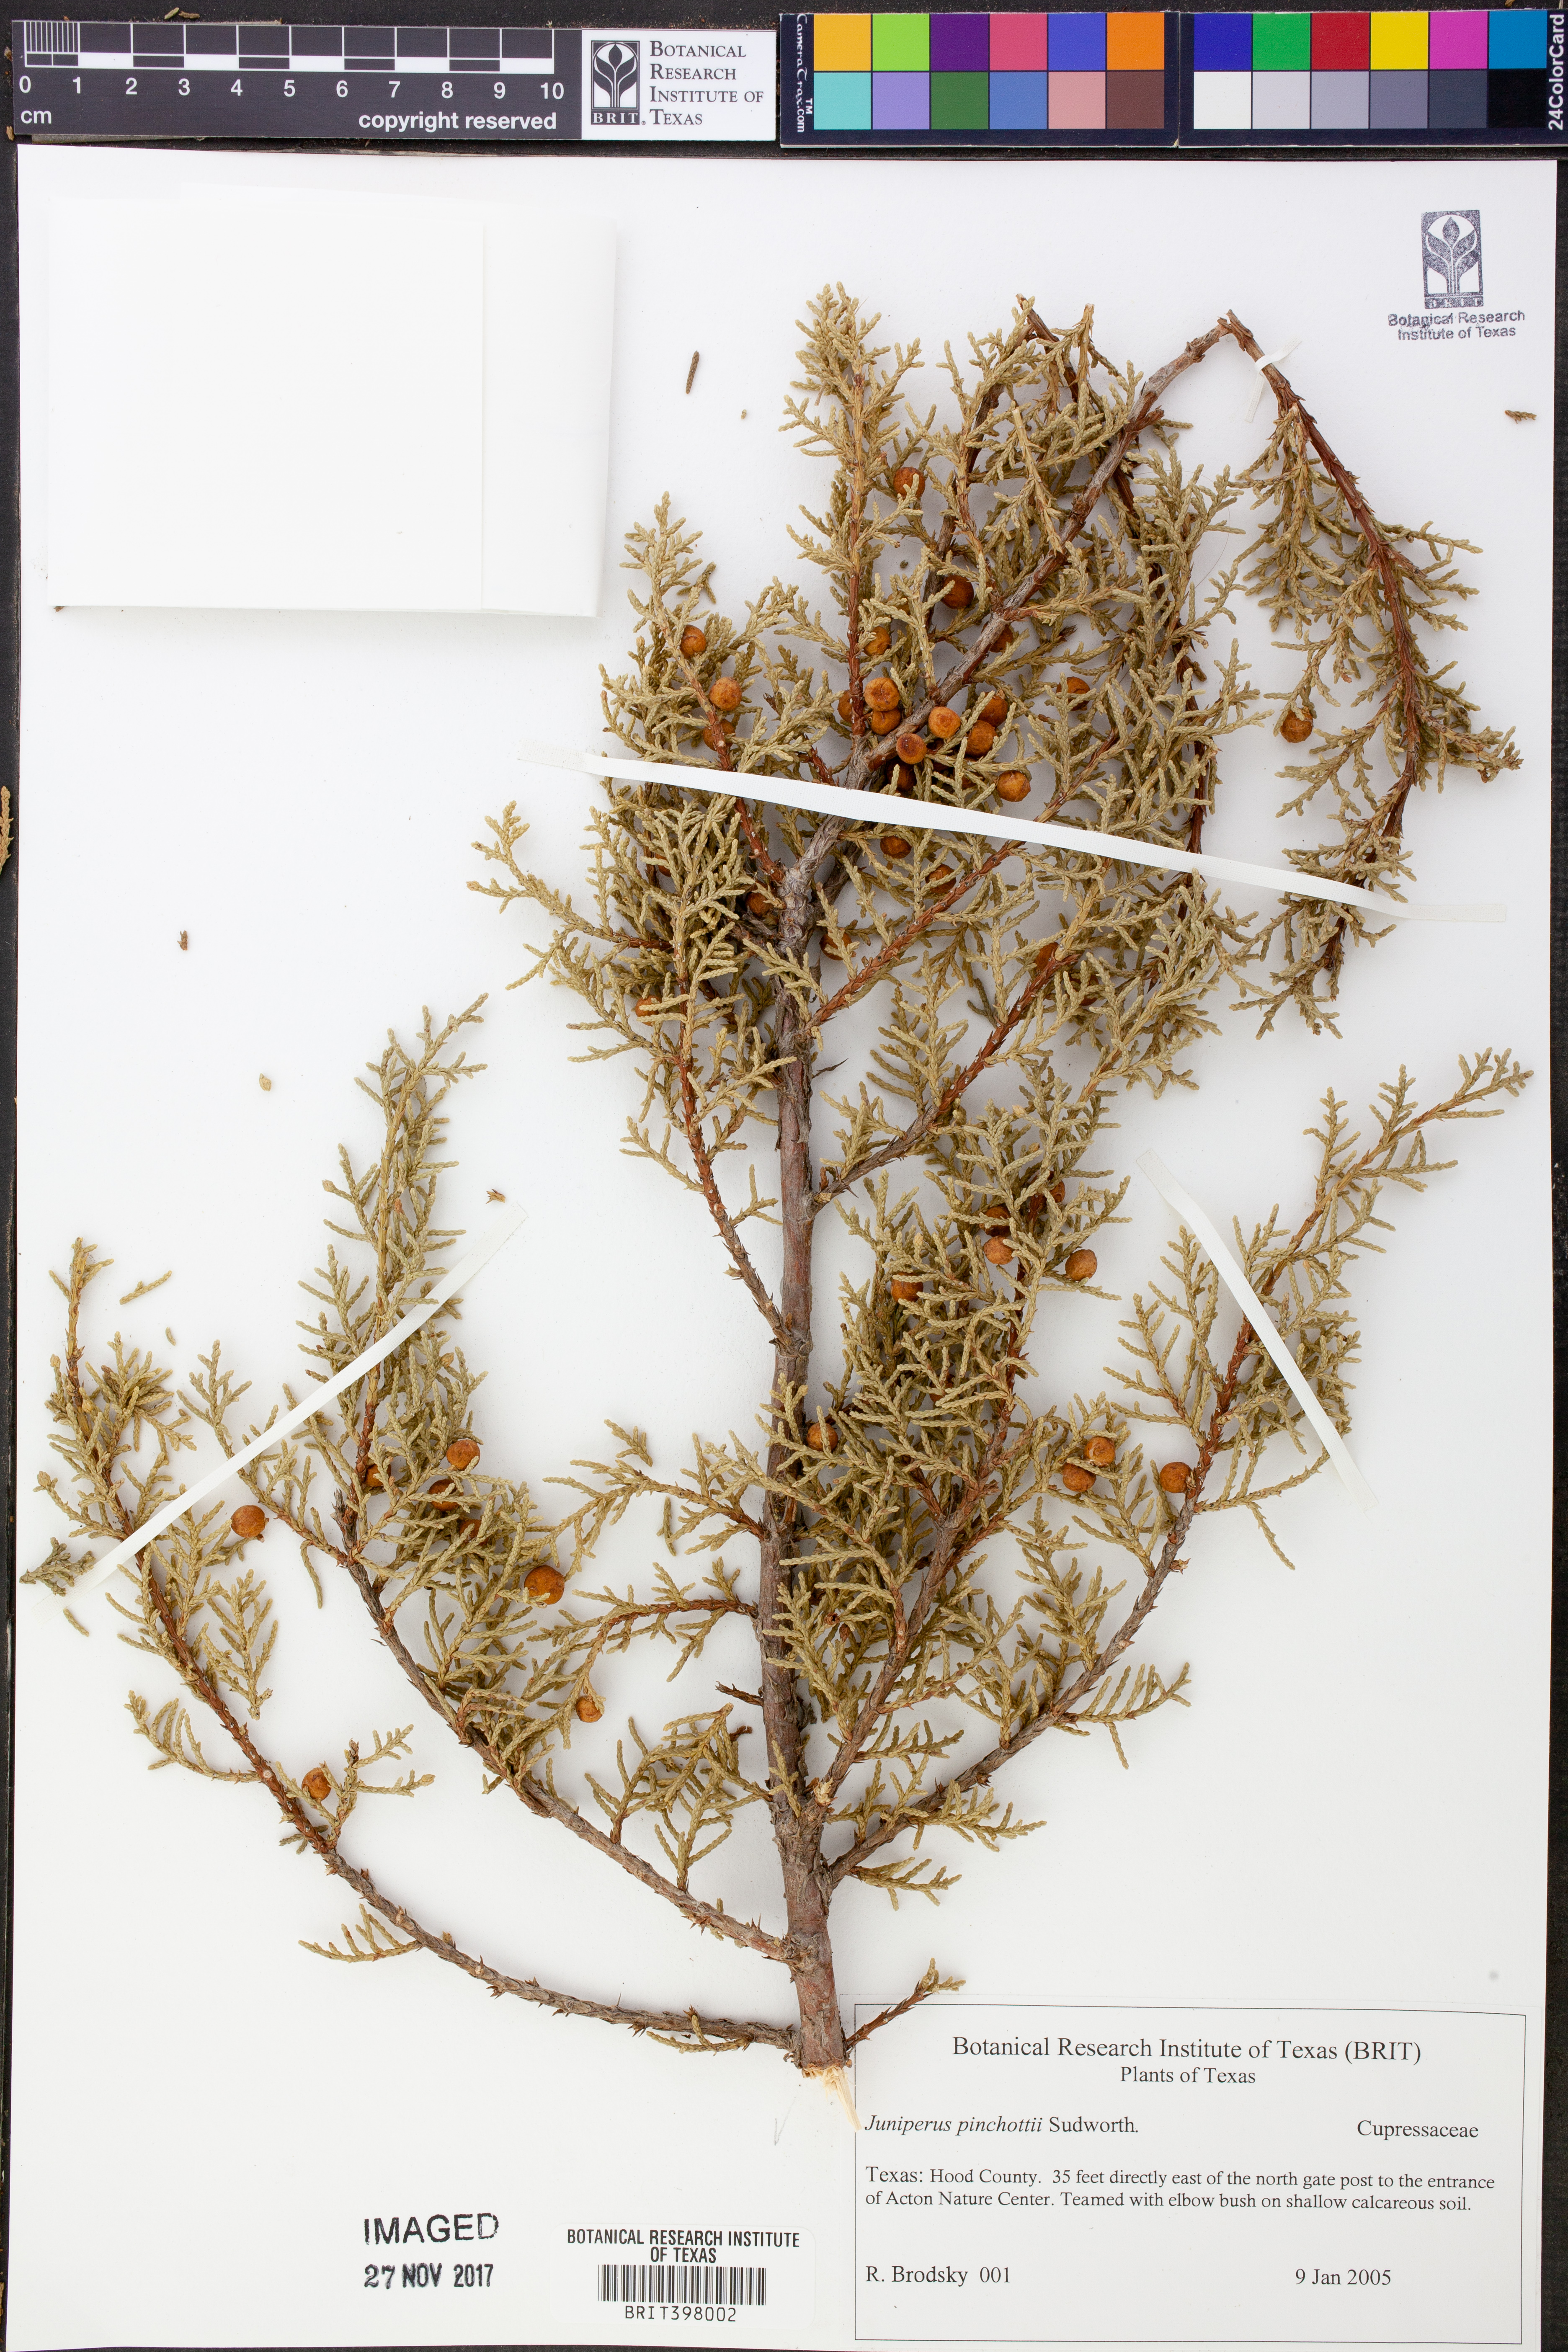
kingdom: Plantae
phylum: Tracheophyta
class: Pinopsida
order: Pinales
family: Cupressaceae
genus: Juniperus
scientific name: Juniperus pinchotii
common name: Pinchot juniper
